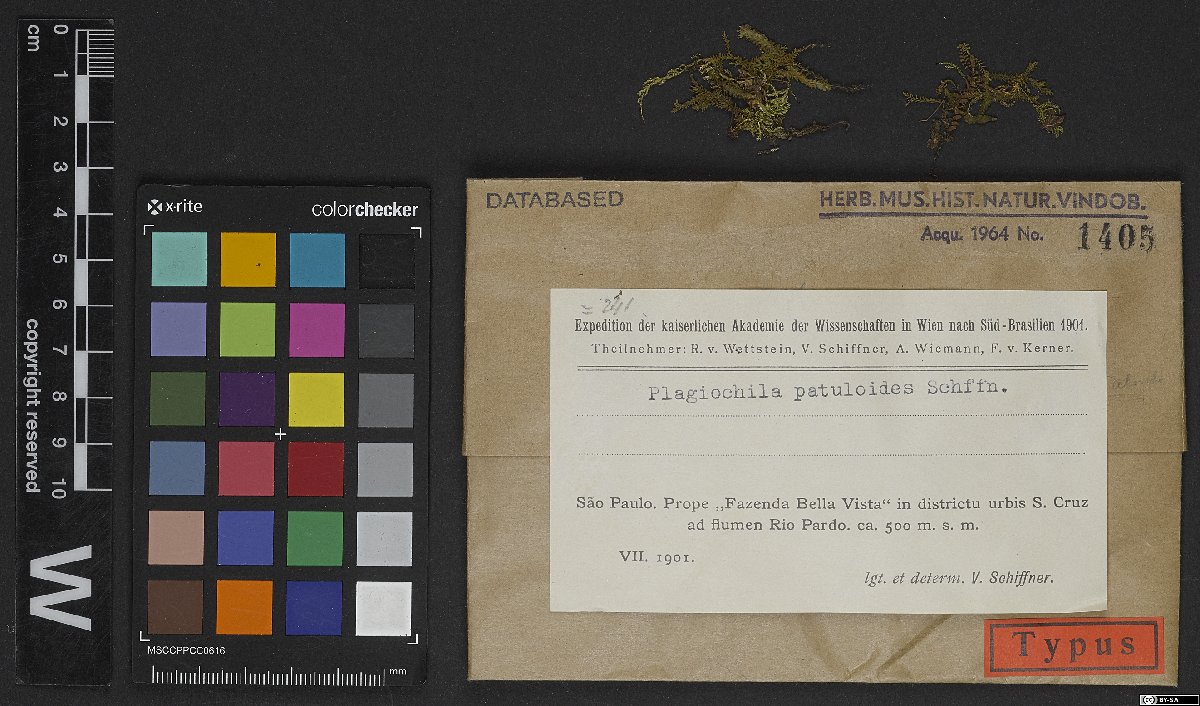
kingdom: Plantae
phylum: Marchantiophyta
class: Jungermanniopsida
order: Jungermanniales
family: Plagiochilaceae
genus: Plagiochila
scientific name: Plagiochila patuloides
